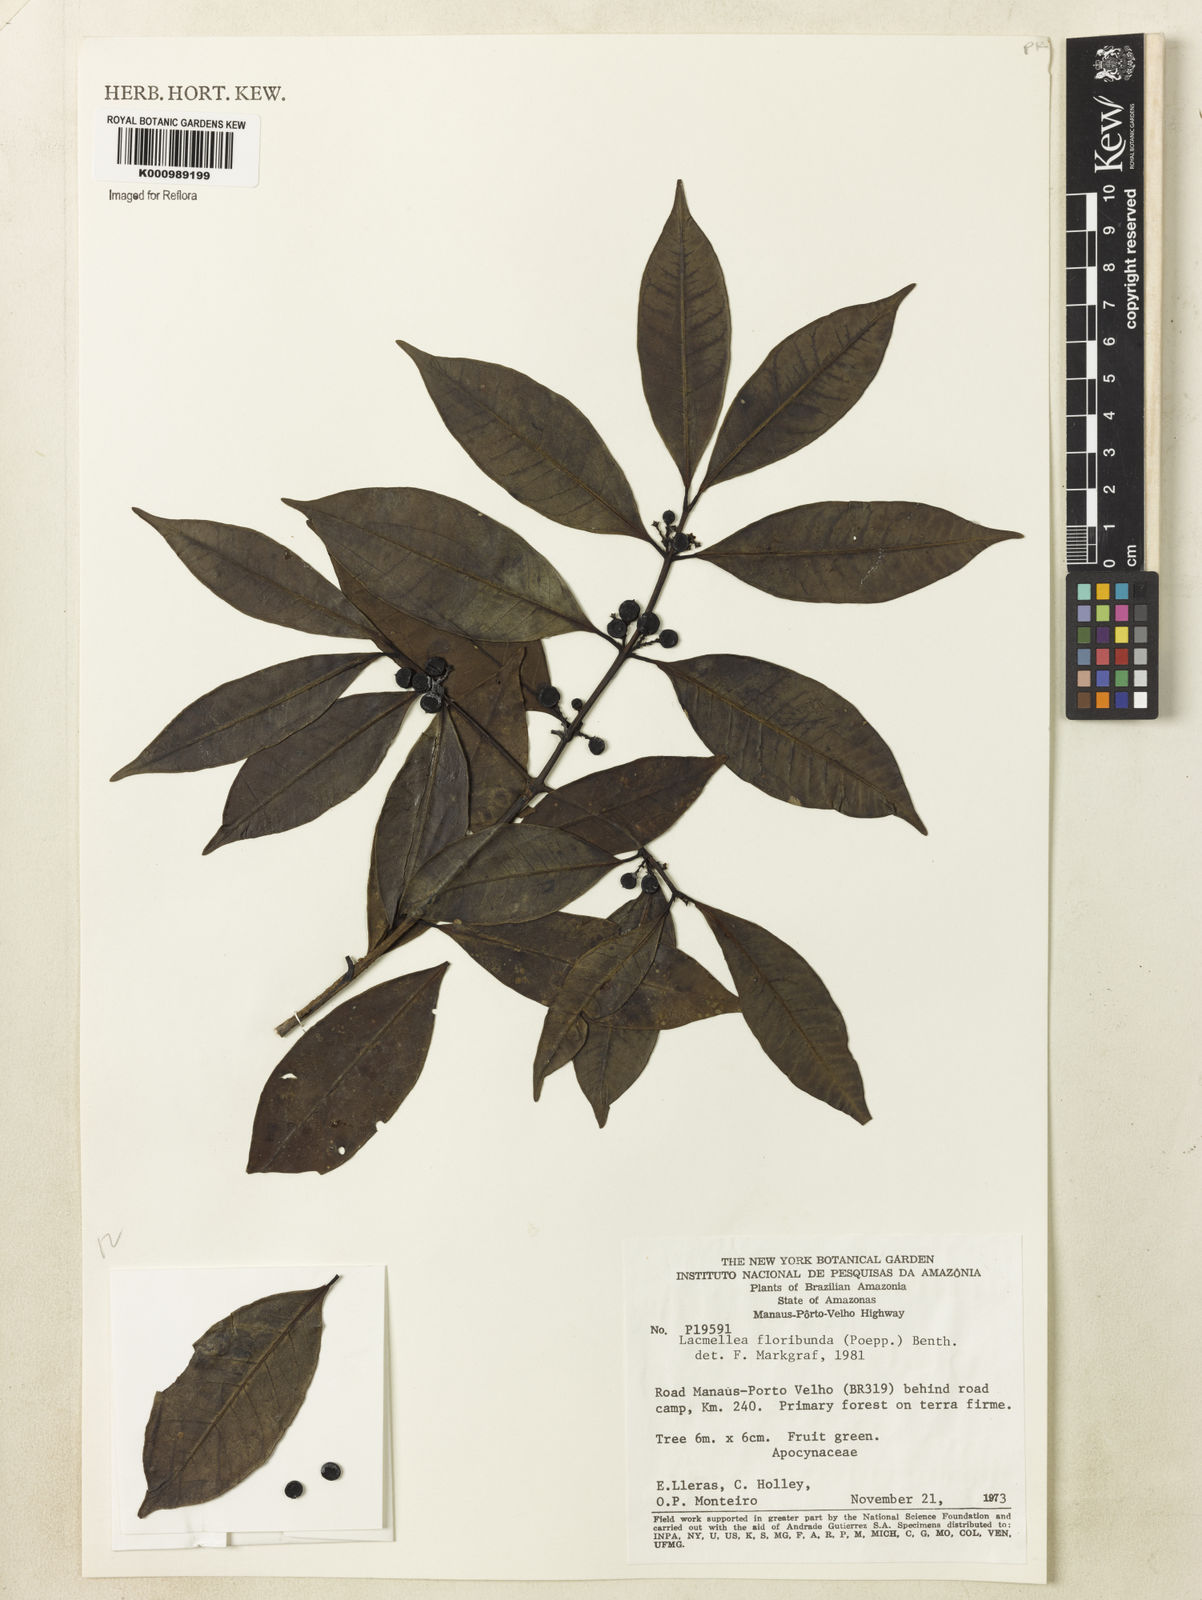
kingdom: Plantae
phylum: Tracheophyta
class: Magnoliopsida
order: Gentianales
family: Apocynaceae
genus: Lacmellea
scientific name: Lacmellea floribunda
